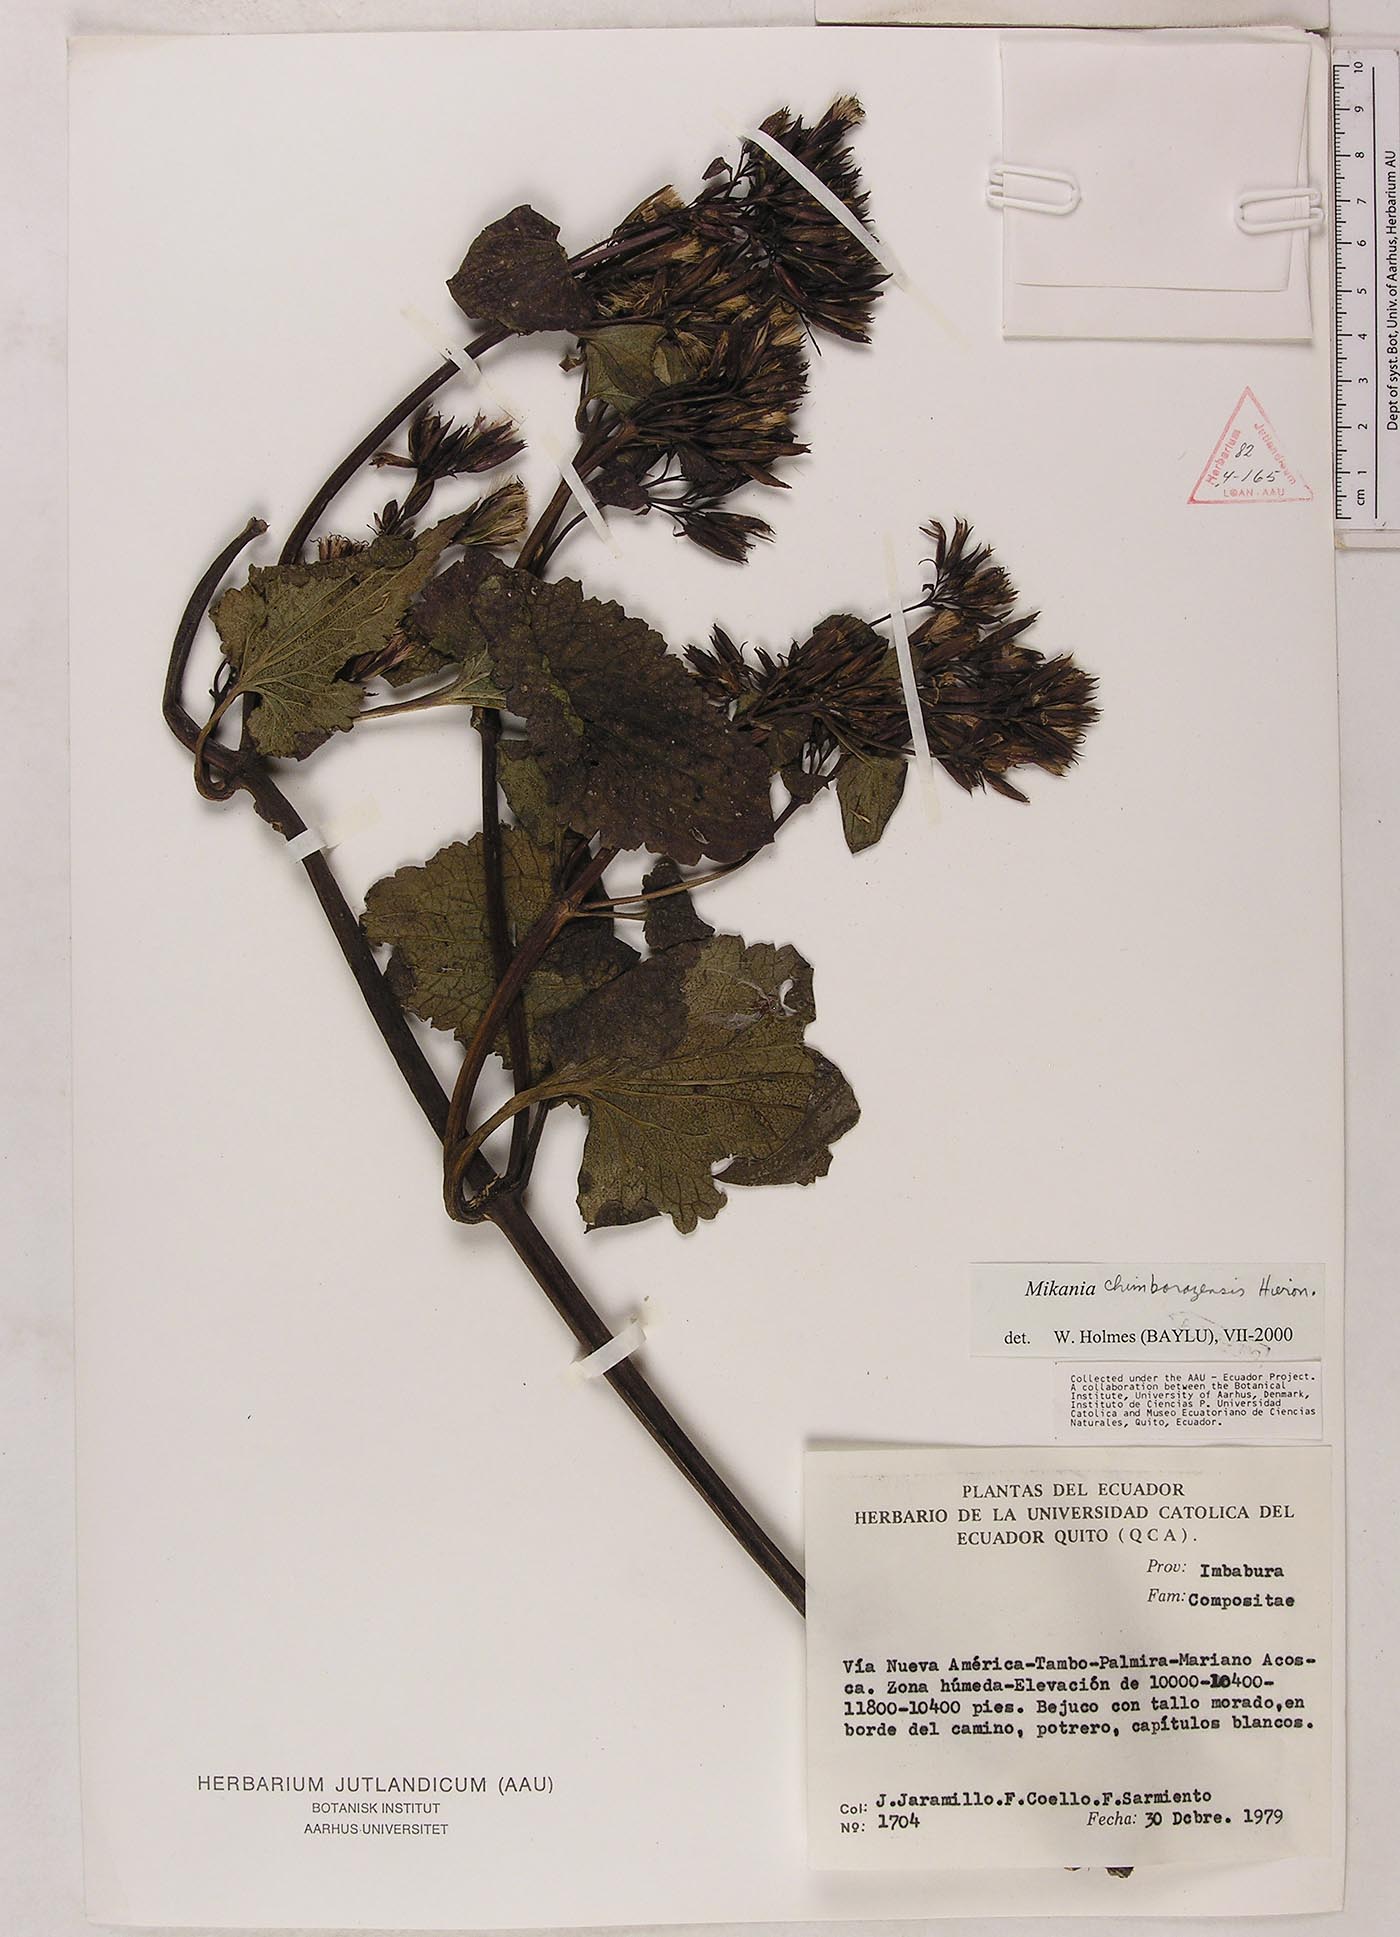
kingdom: Plantae
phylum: Tracheophyta
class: Magnoliopsida
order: Asterales
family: Asteraceae
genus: Mikania
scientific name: Mikania chimborazensis
